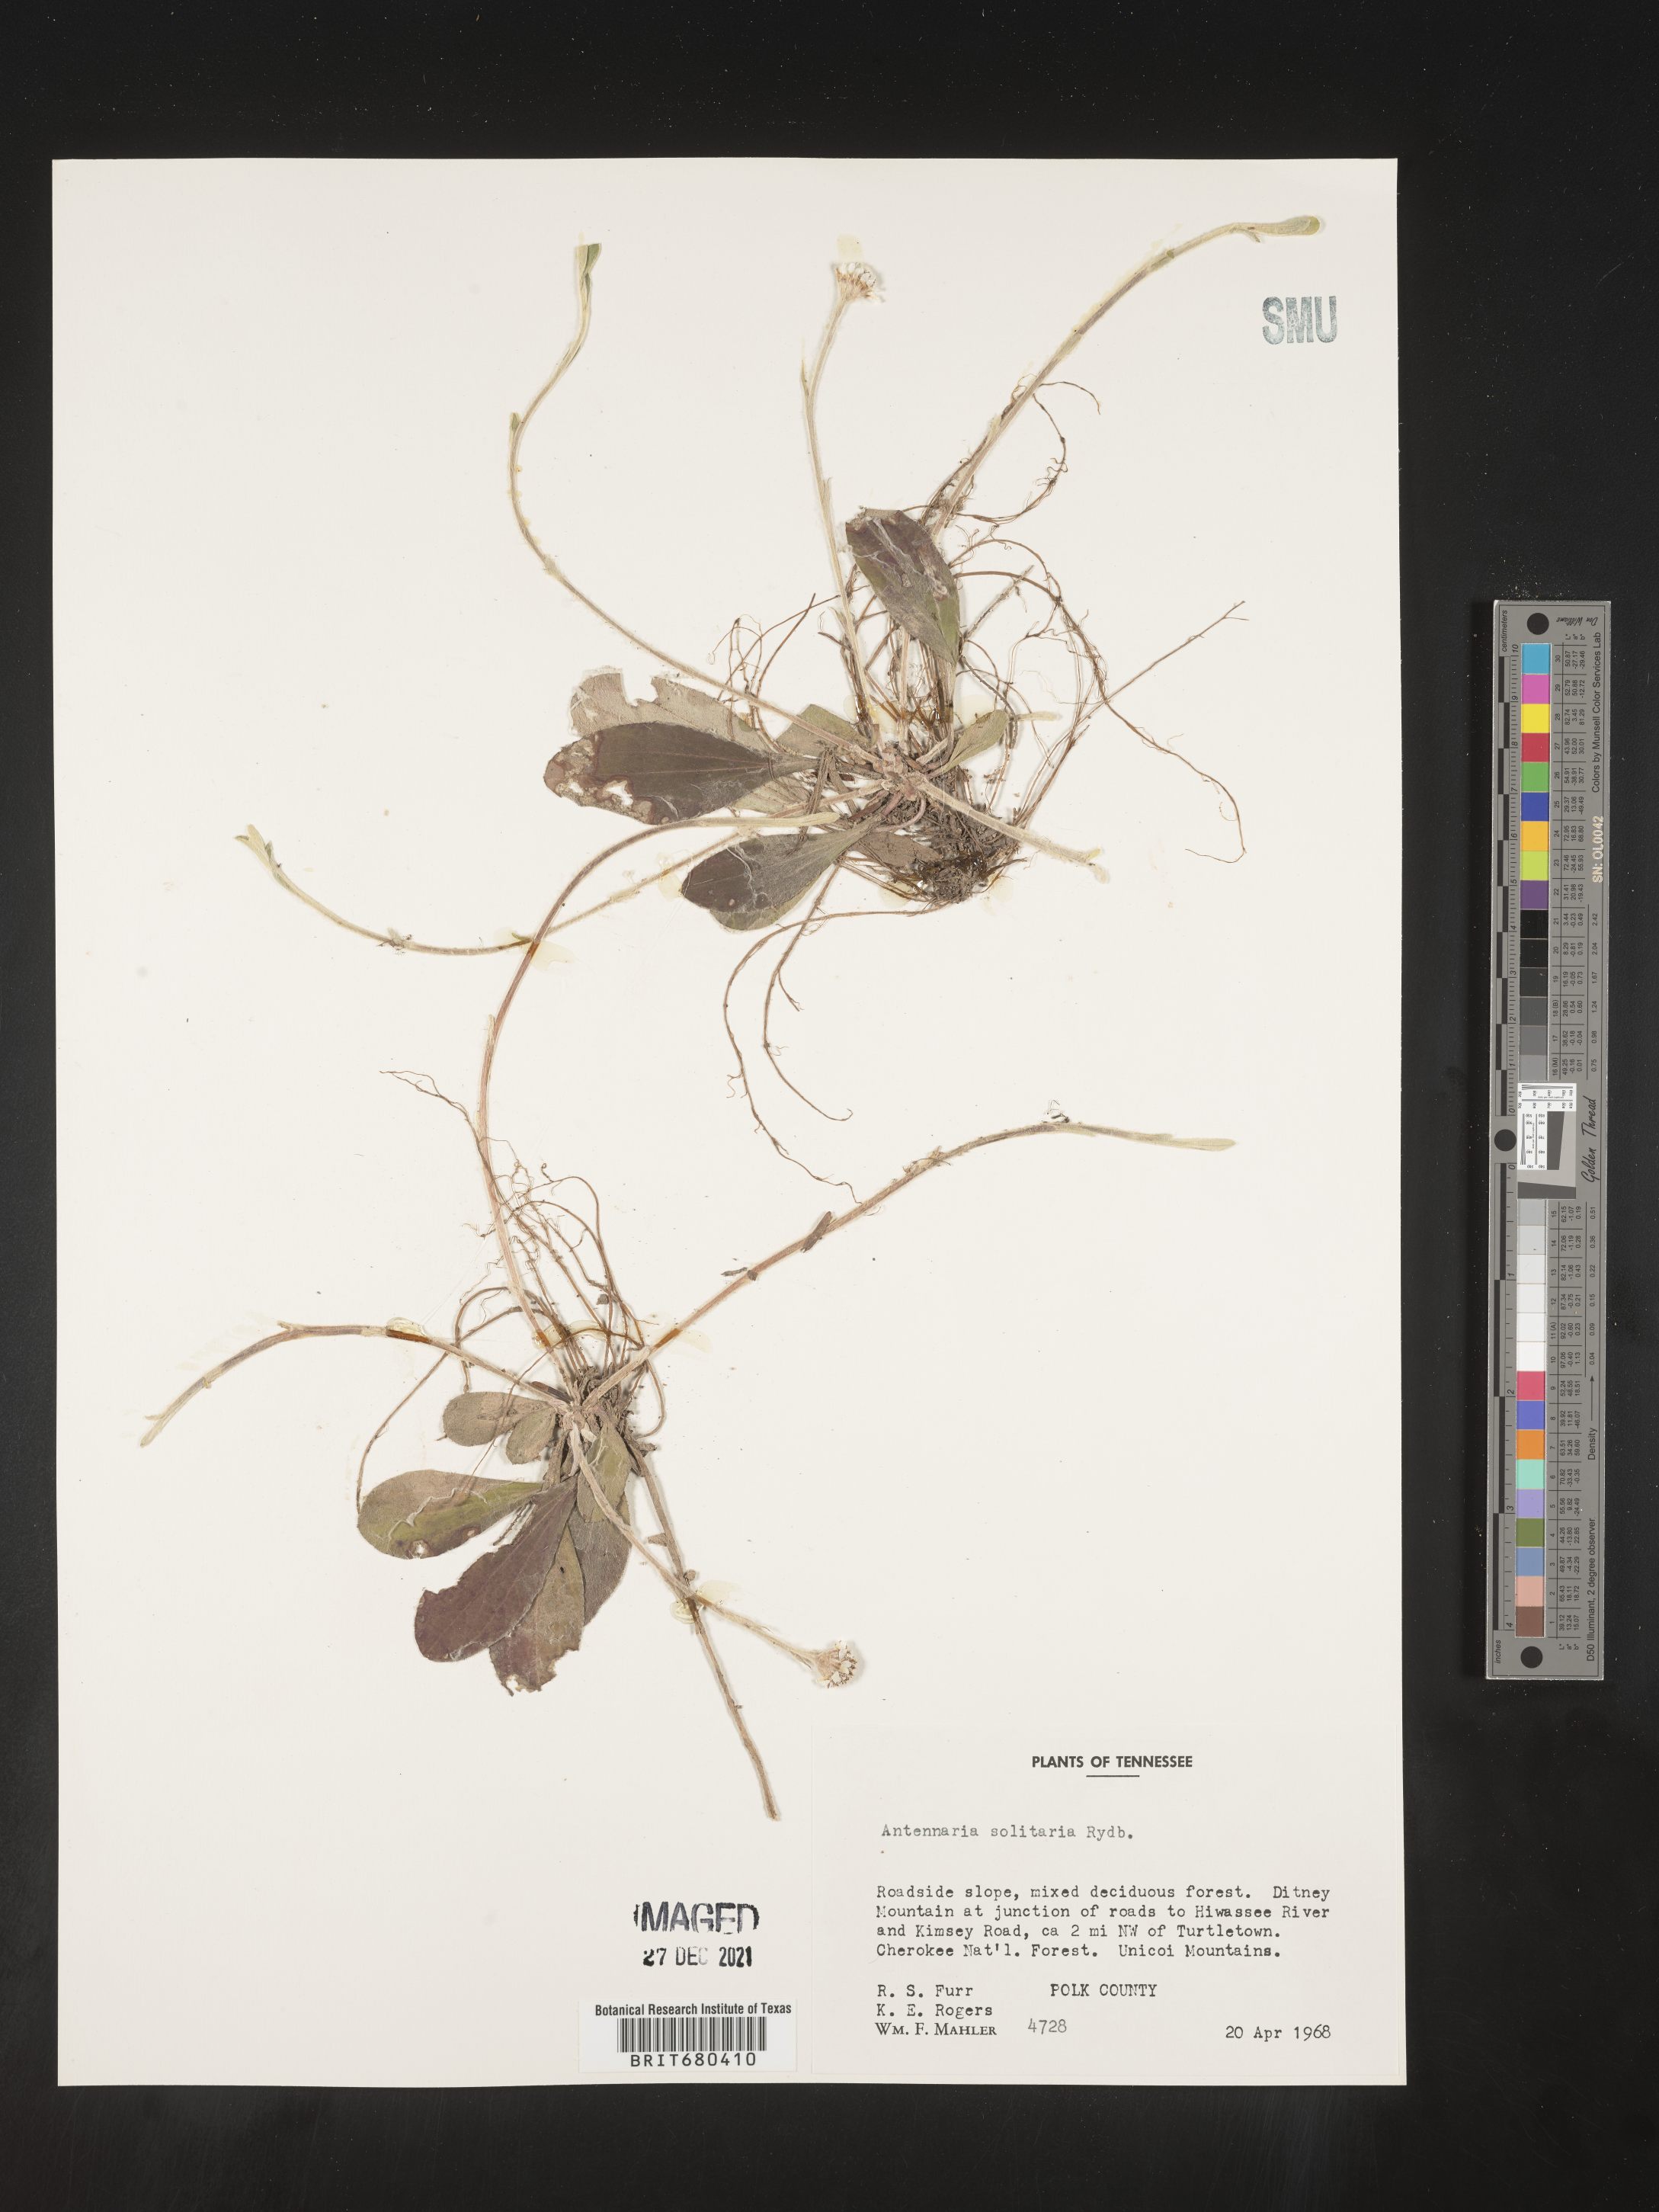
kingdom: Plantae
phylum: Tracheophyta
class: Magnoliopsida
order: Asterales
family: Asteraceae
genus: Antennaria
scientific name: Antennaria solitaria
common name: Single-head pussytoes
